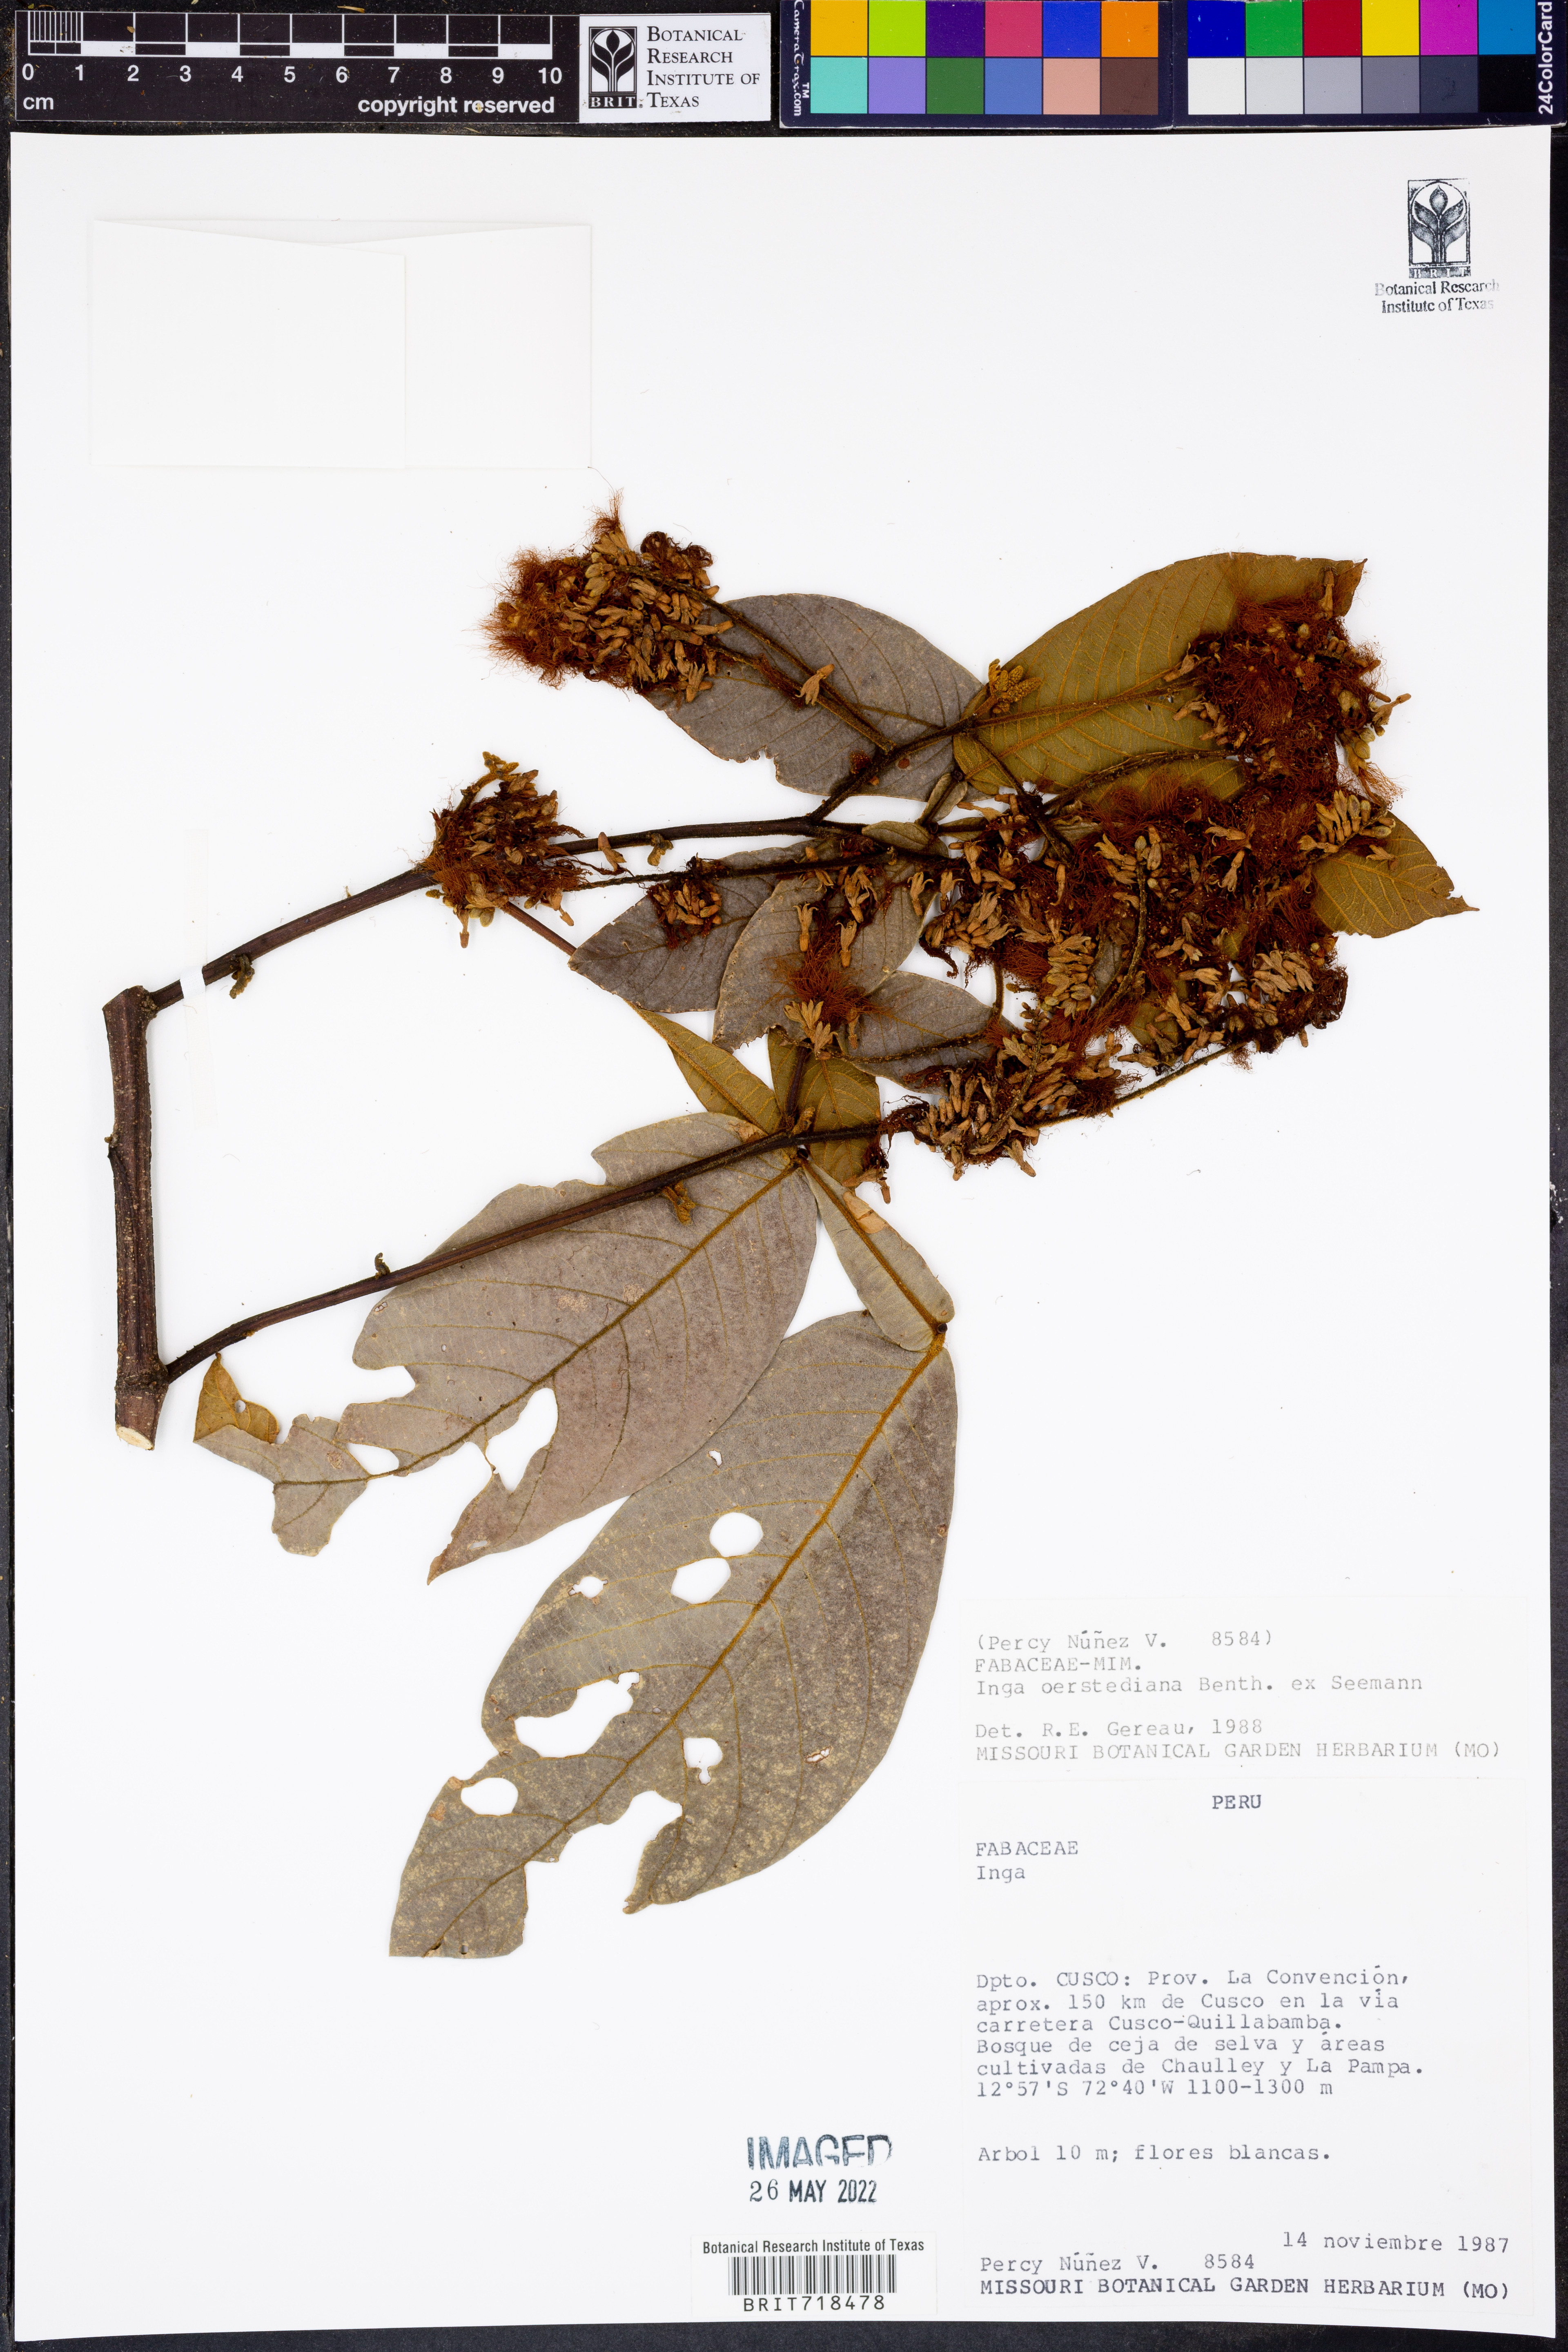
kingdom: Plantae
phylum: Tracheophyta
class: Magnoliopsida
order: Fabales
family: Fabaceae
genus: Inga
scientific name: Inga
